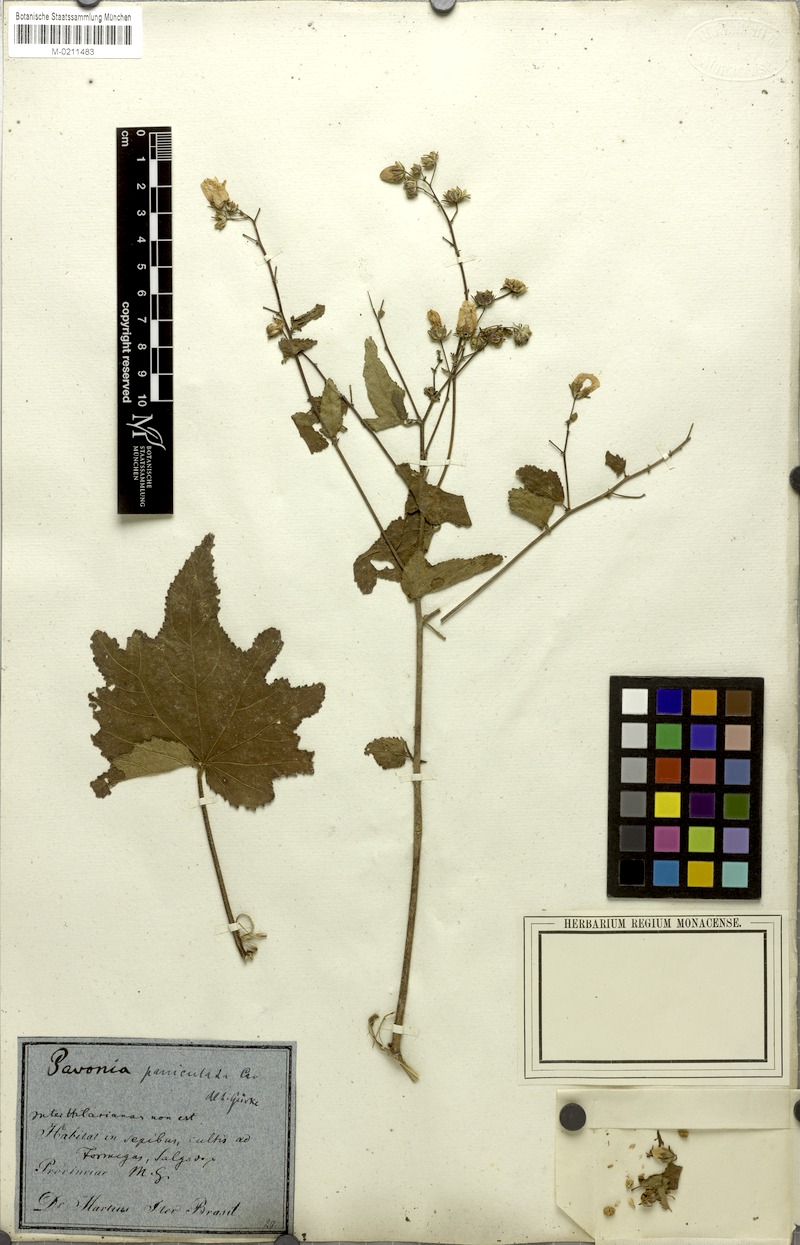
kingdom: Plantae
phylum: Tracheophyta
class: Magnoliopsida
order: Malvales
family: Malvaceae
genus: Pavonia
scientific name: Pavonia paniculata
